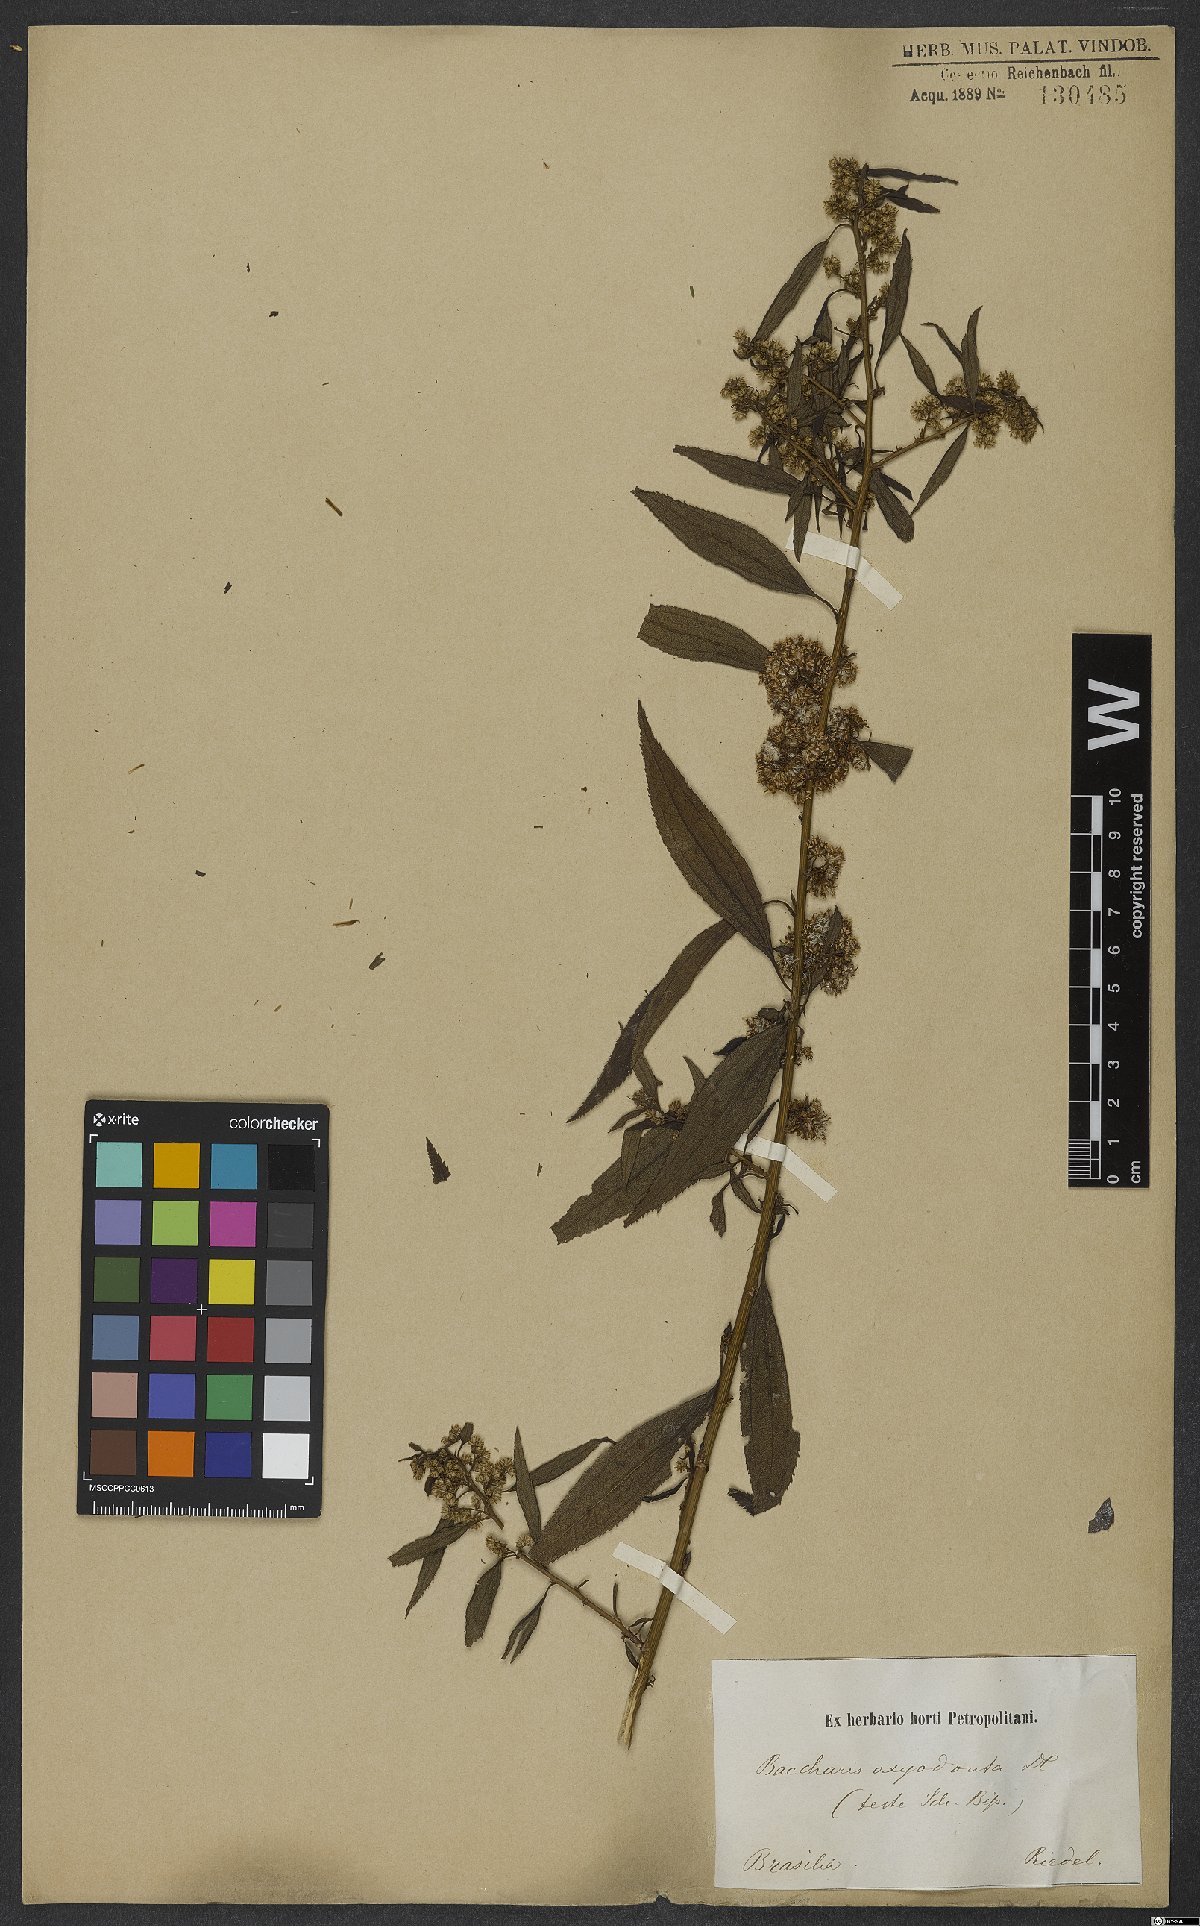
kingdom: Plantae
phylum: Tracheophyta
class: Magnoliopsida
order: Asterales
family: Asteraceae
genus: Baccharis
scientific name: Baccharis oxyodonta
